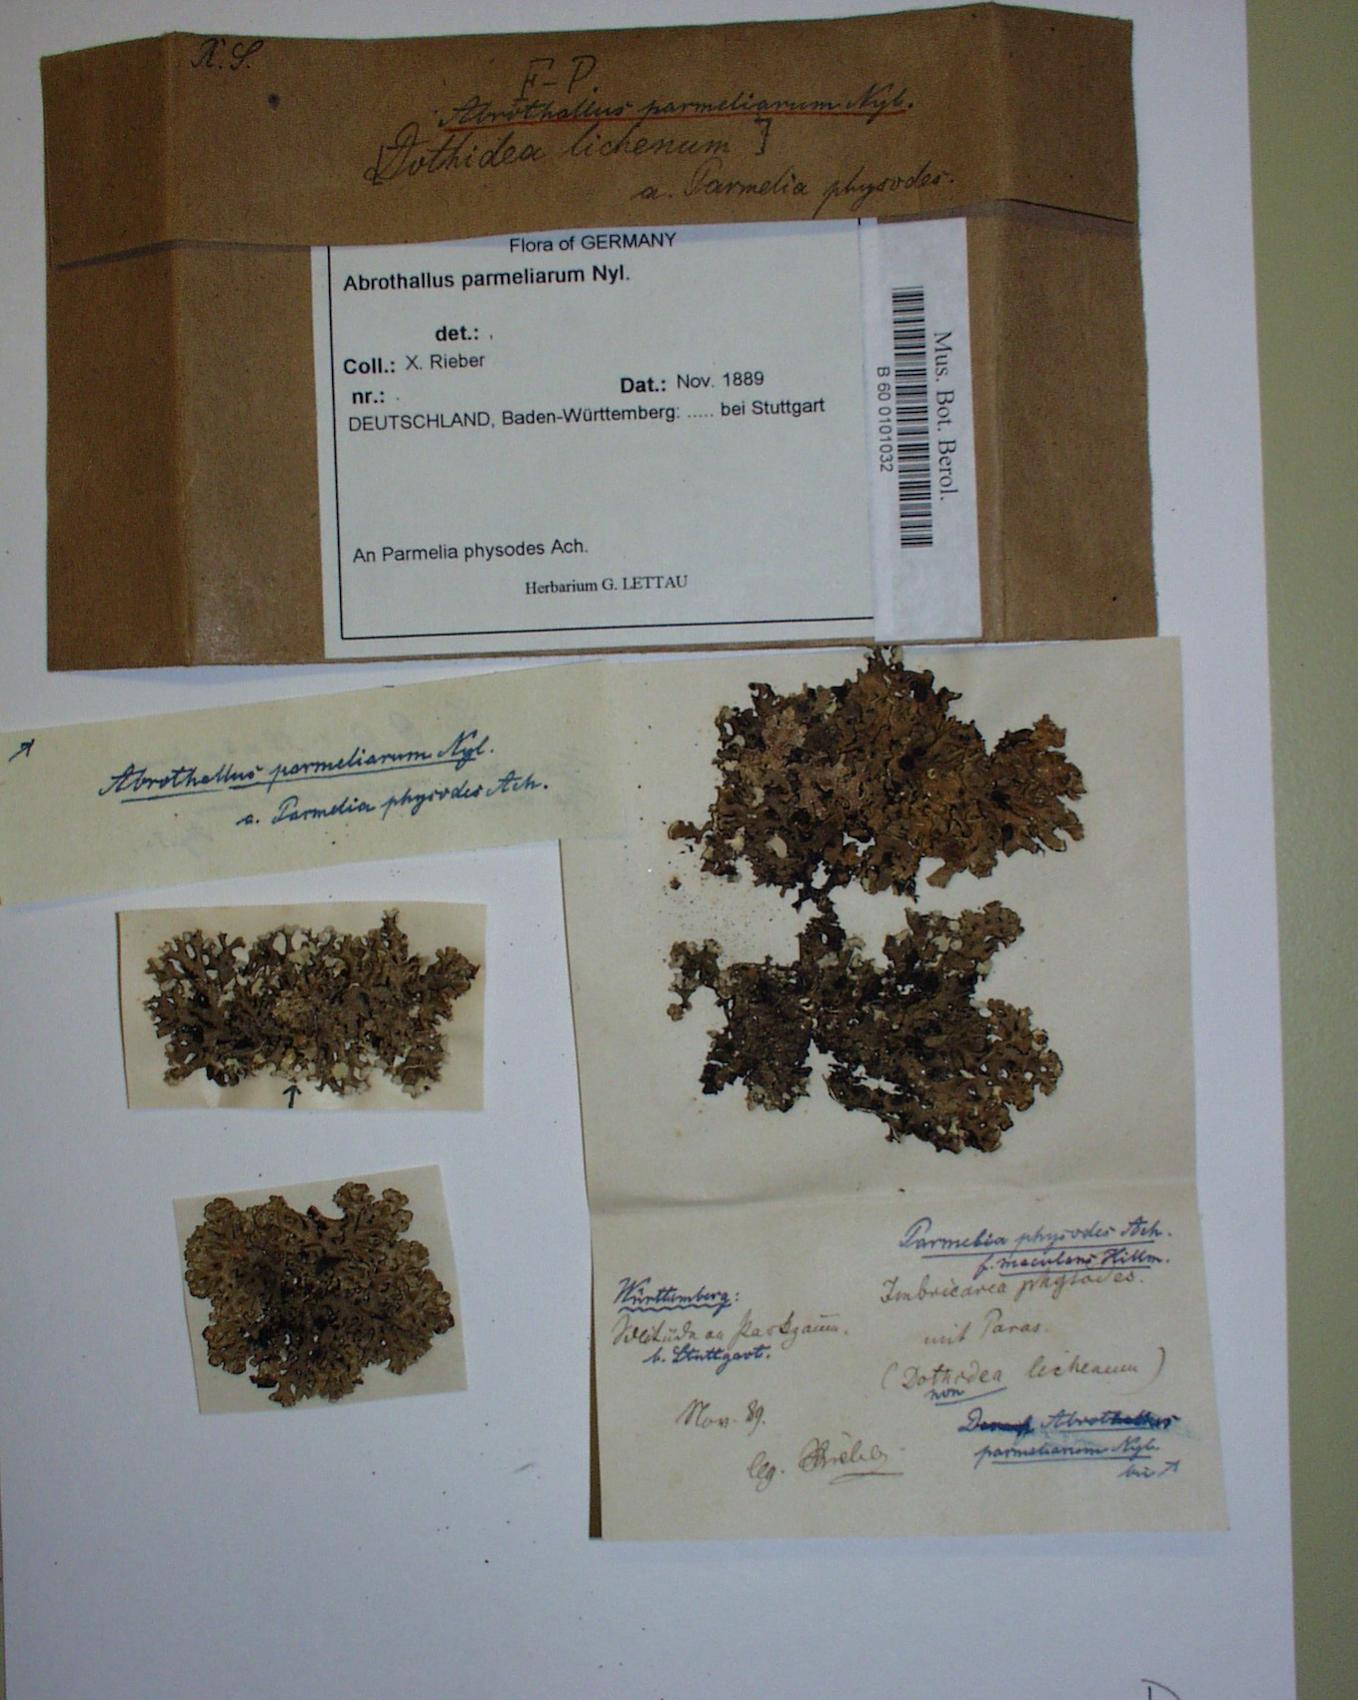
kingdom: Fungi
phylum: Ascomycota
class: Dothideomycetes
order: Abrothallales
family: Abrothallaceae
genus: Abrothallus
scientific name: Abrothallus parmeliarum
